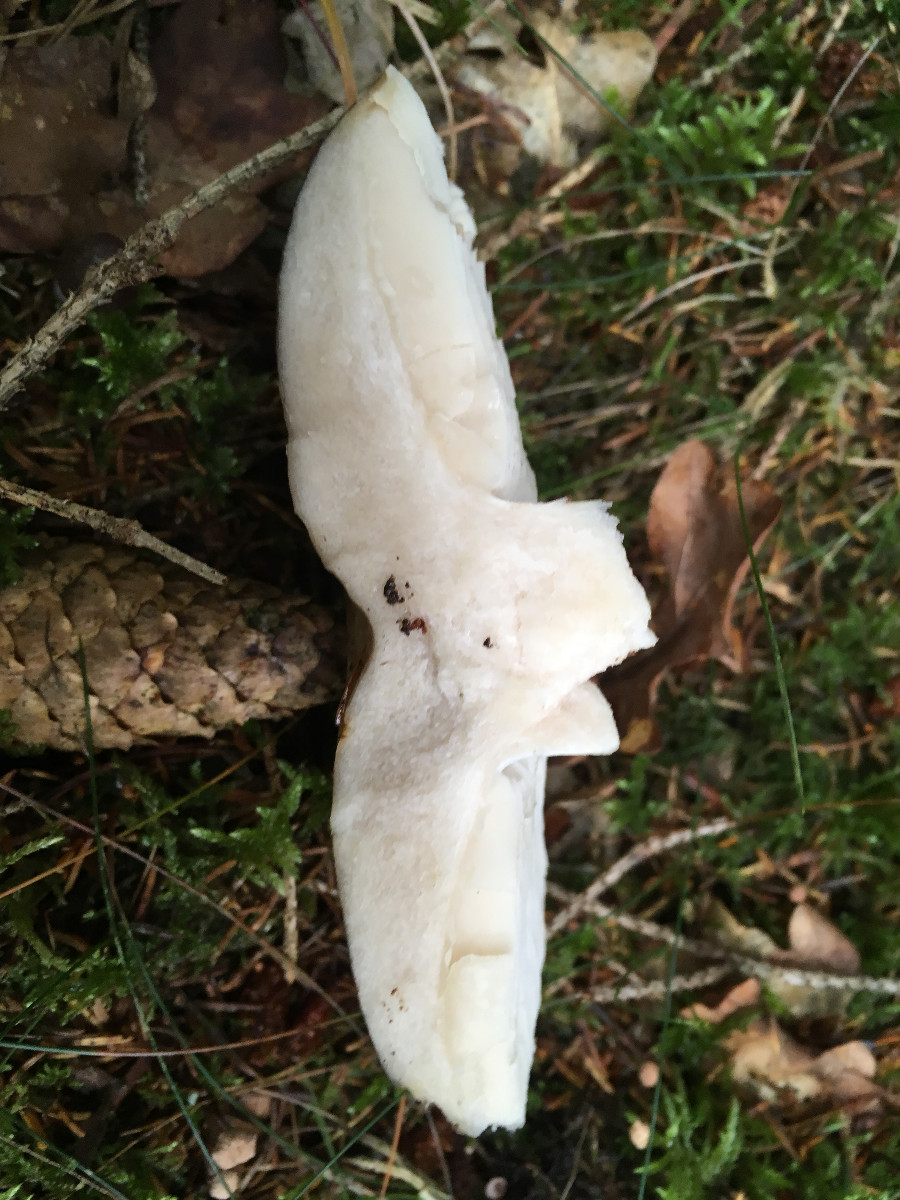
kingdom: Fungi
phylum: Basidiomycota
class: Agaricomycetes
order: Russulales
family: Russulaceae
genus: Russula
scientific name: Russula adusta
